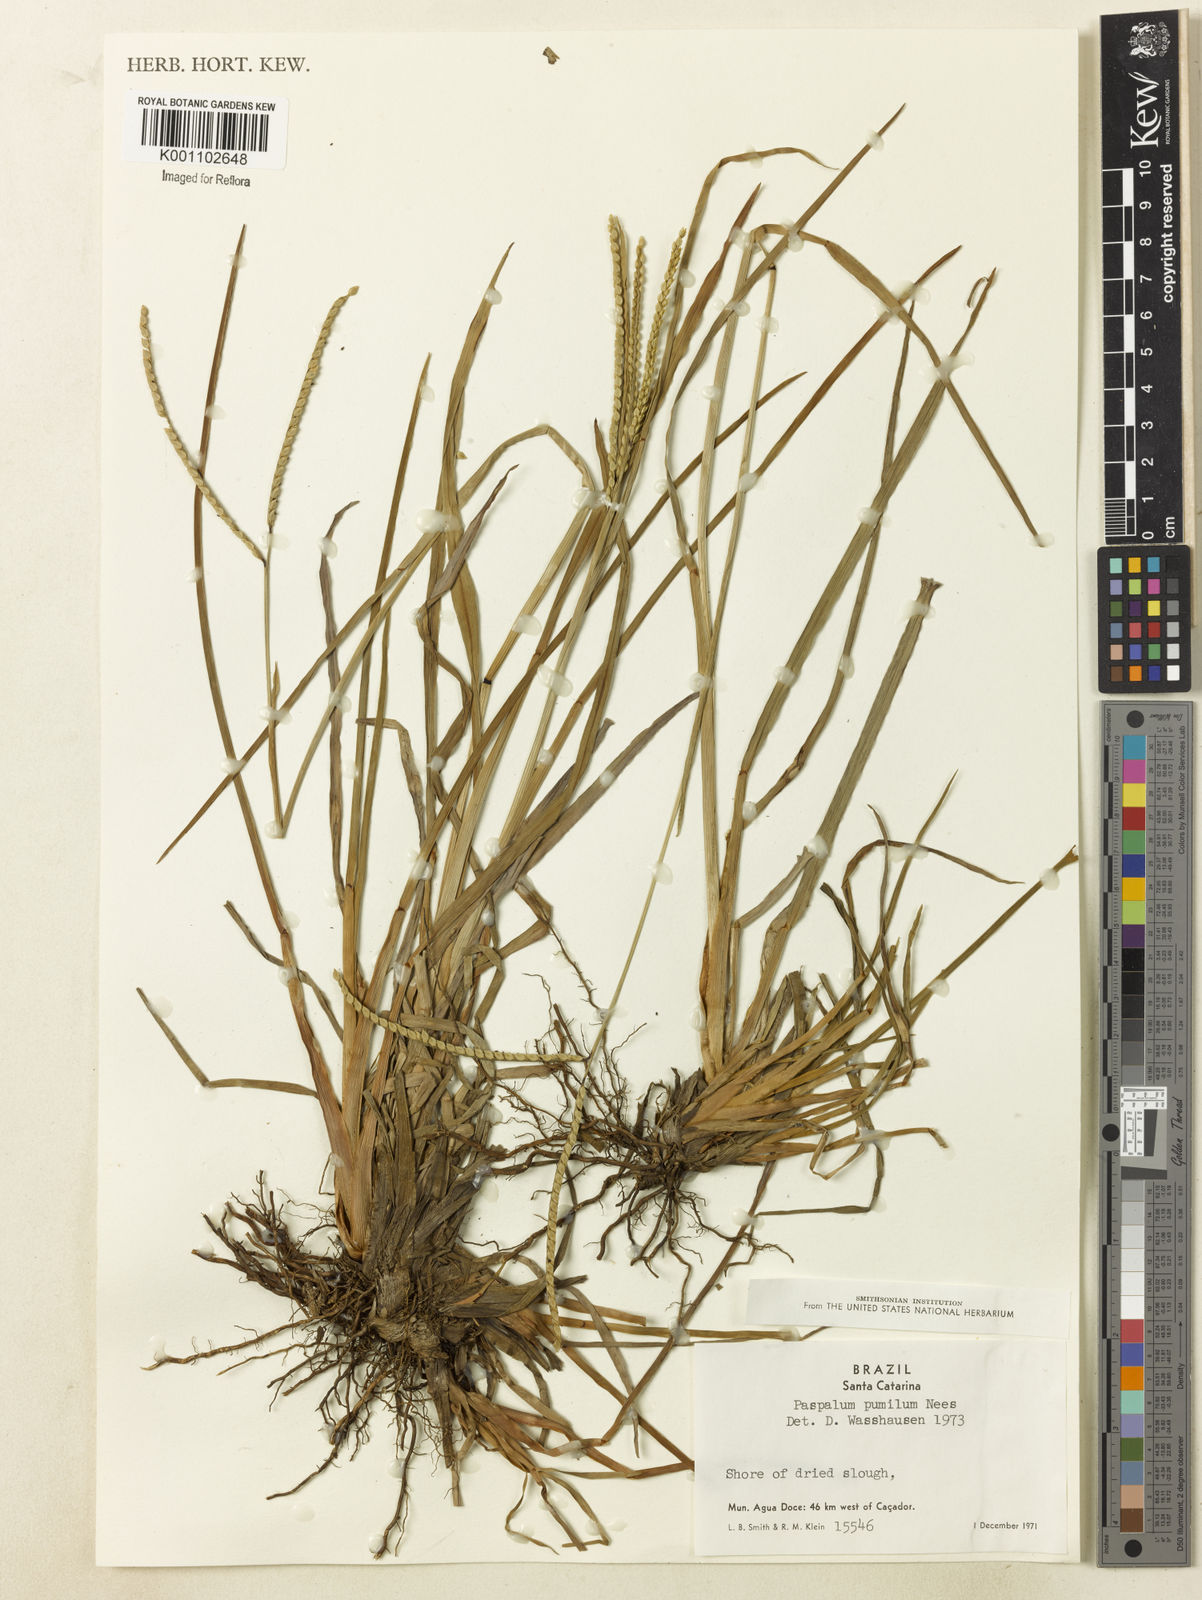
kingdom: Plantae
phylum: Tracheophyta
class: Liliopsida
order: Poales
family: Poaceae
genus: Paspalum
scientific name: Paspalum ramboi
